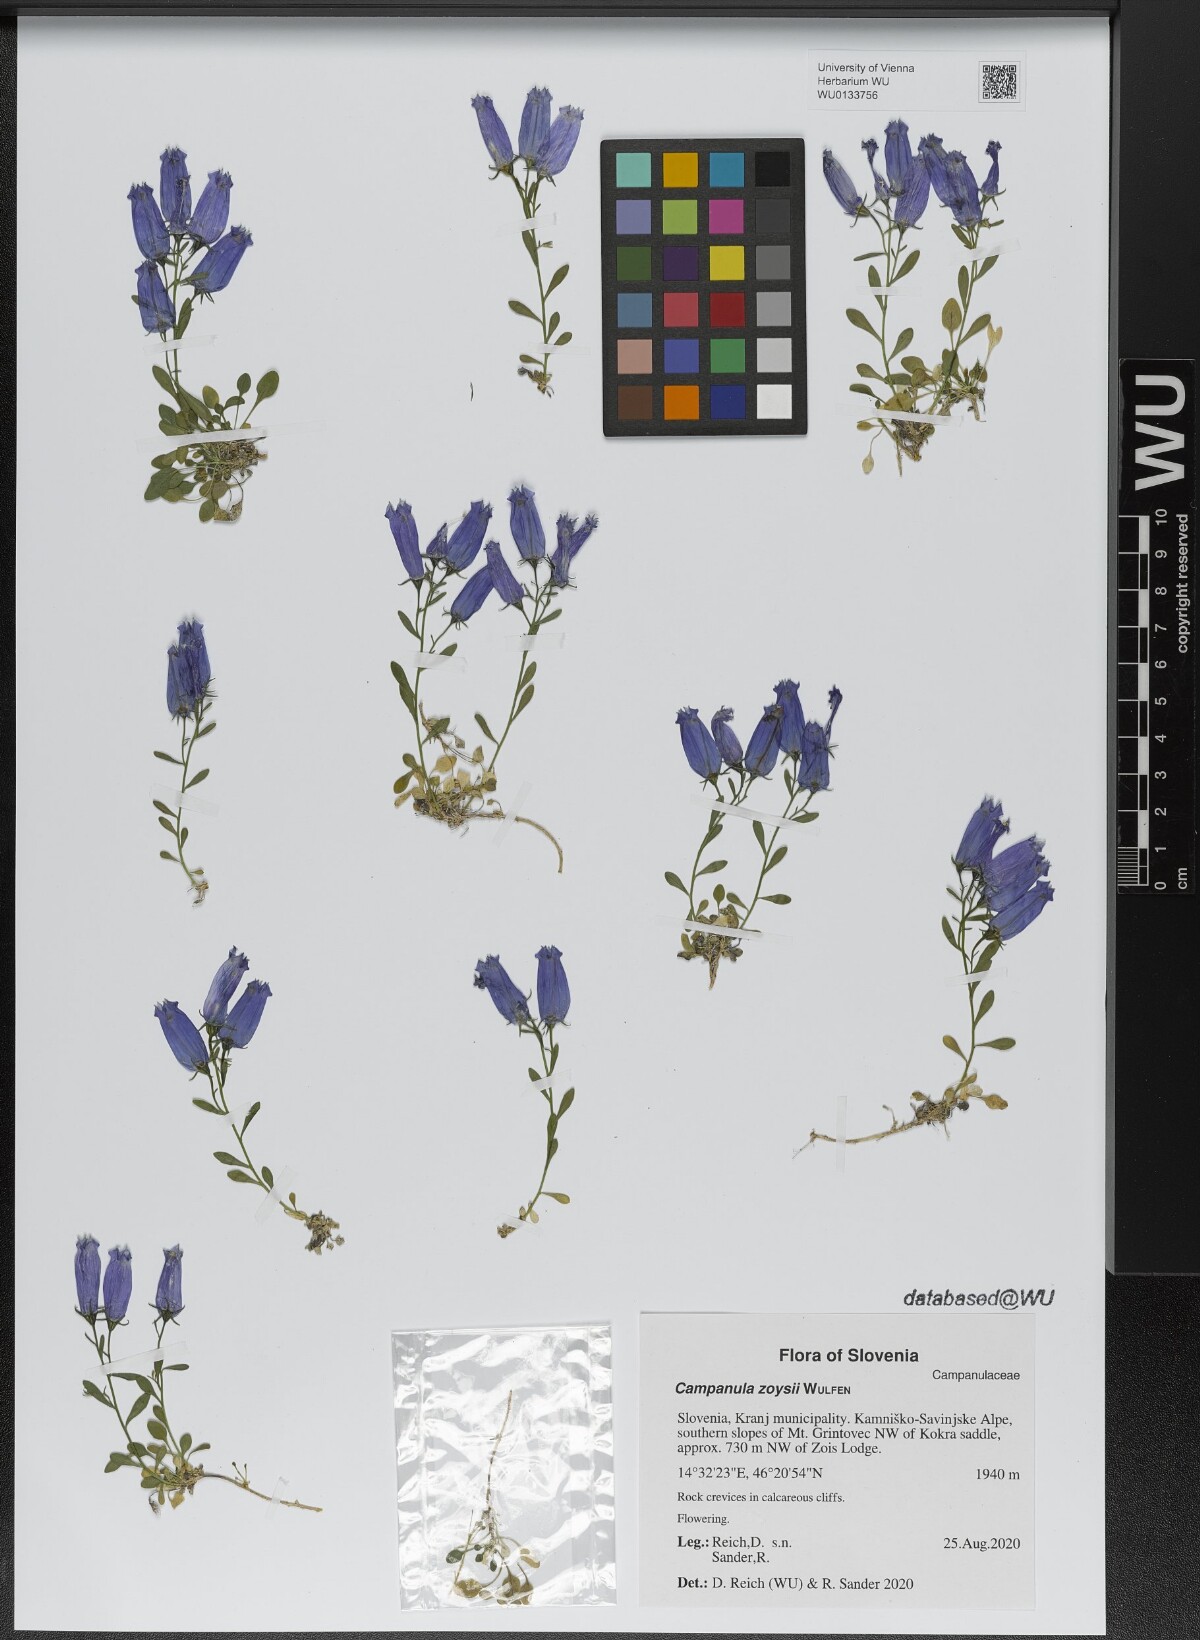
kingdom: Plantae
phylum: Tracheophyta
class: Magnoliopsida
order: Asterales
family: Campanulaceae
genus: Favratia
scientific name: Favratia zoysii
